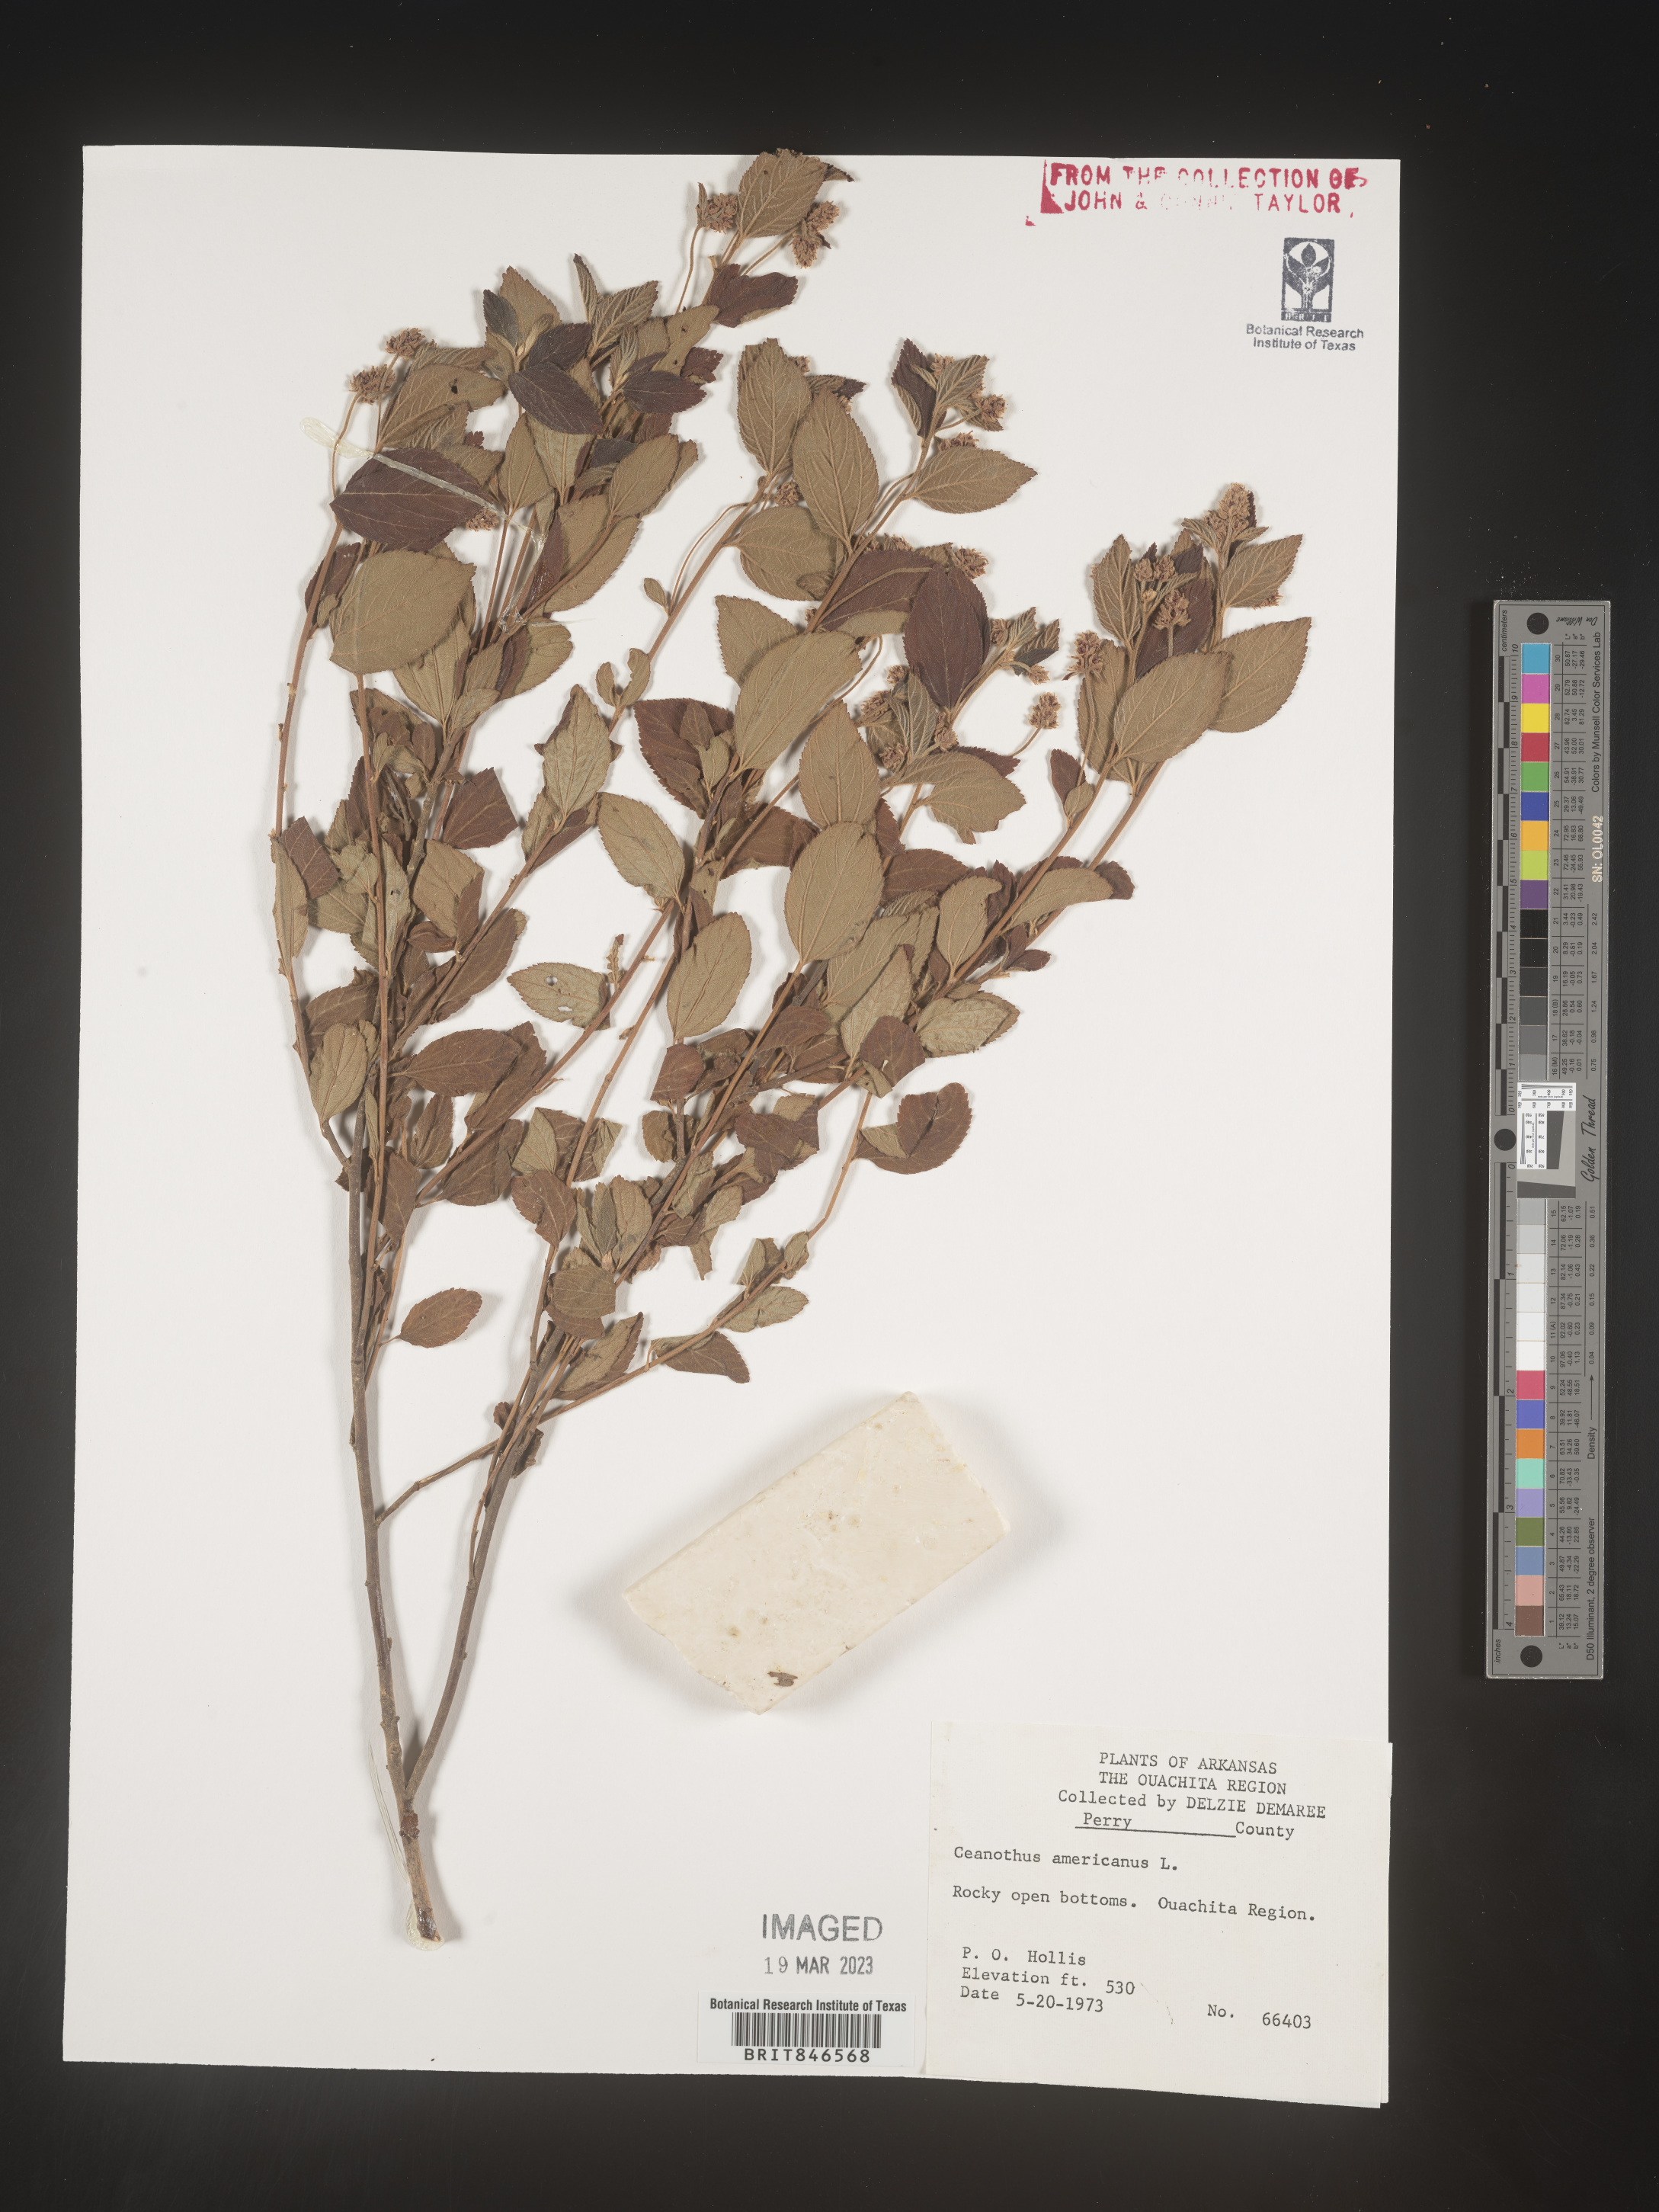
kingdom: Plantae
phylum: Tracheophyta
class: Magnoliopsida
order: Rosales
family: Rhamnaceae
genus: Ceanothus
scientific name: Ceanothus americanus
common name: Redroot
